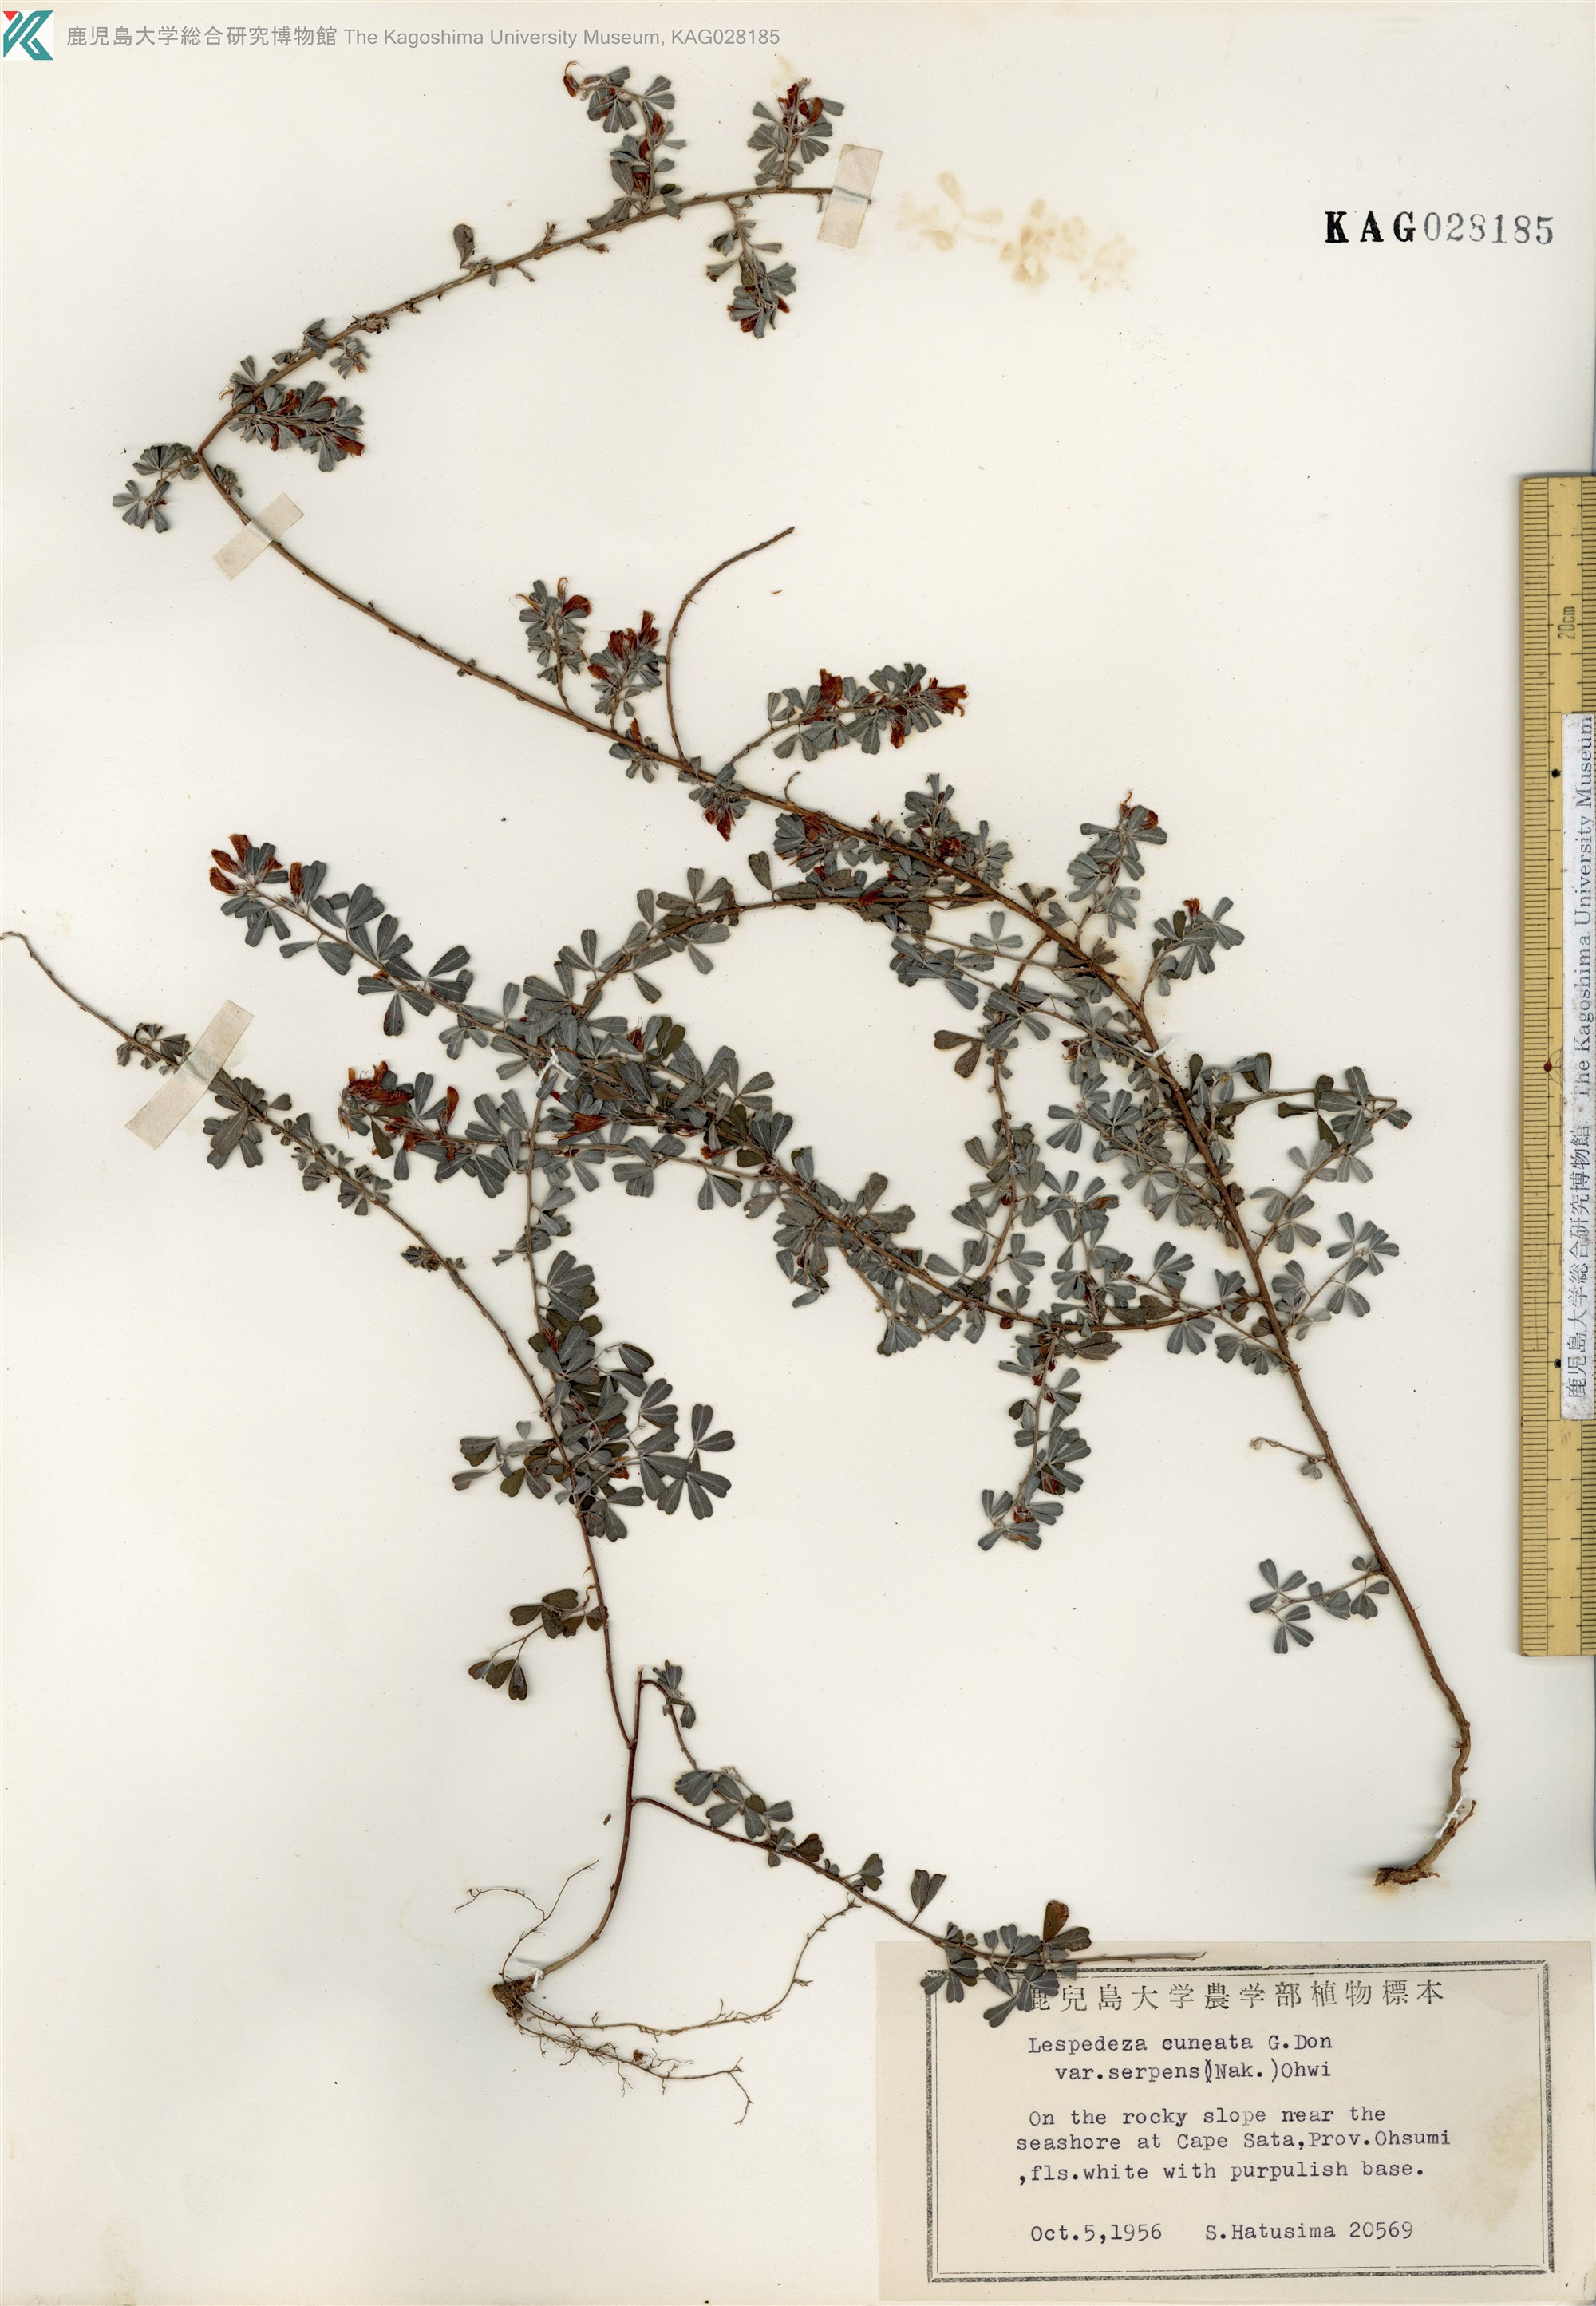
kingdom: Plantae
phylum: Tracheophyta
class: Magnoliopsida
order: Fabales
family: Fabaceae
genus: Lespedeza
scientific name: Lespedeza cuneata
